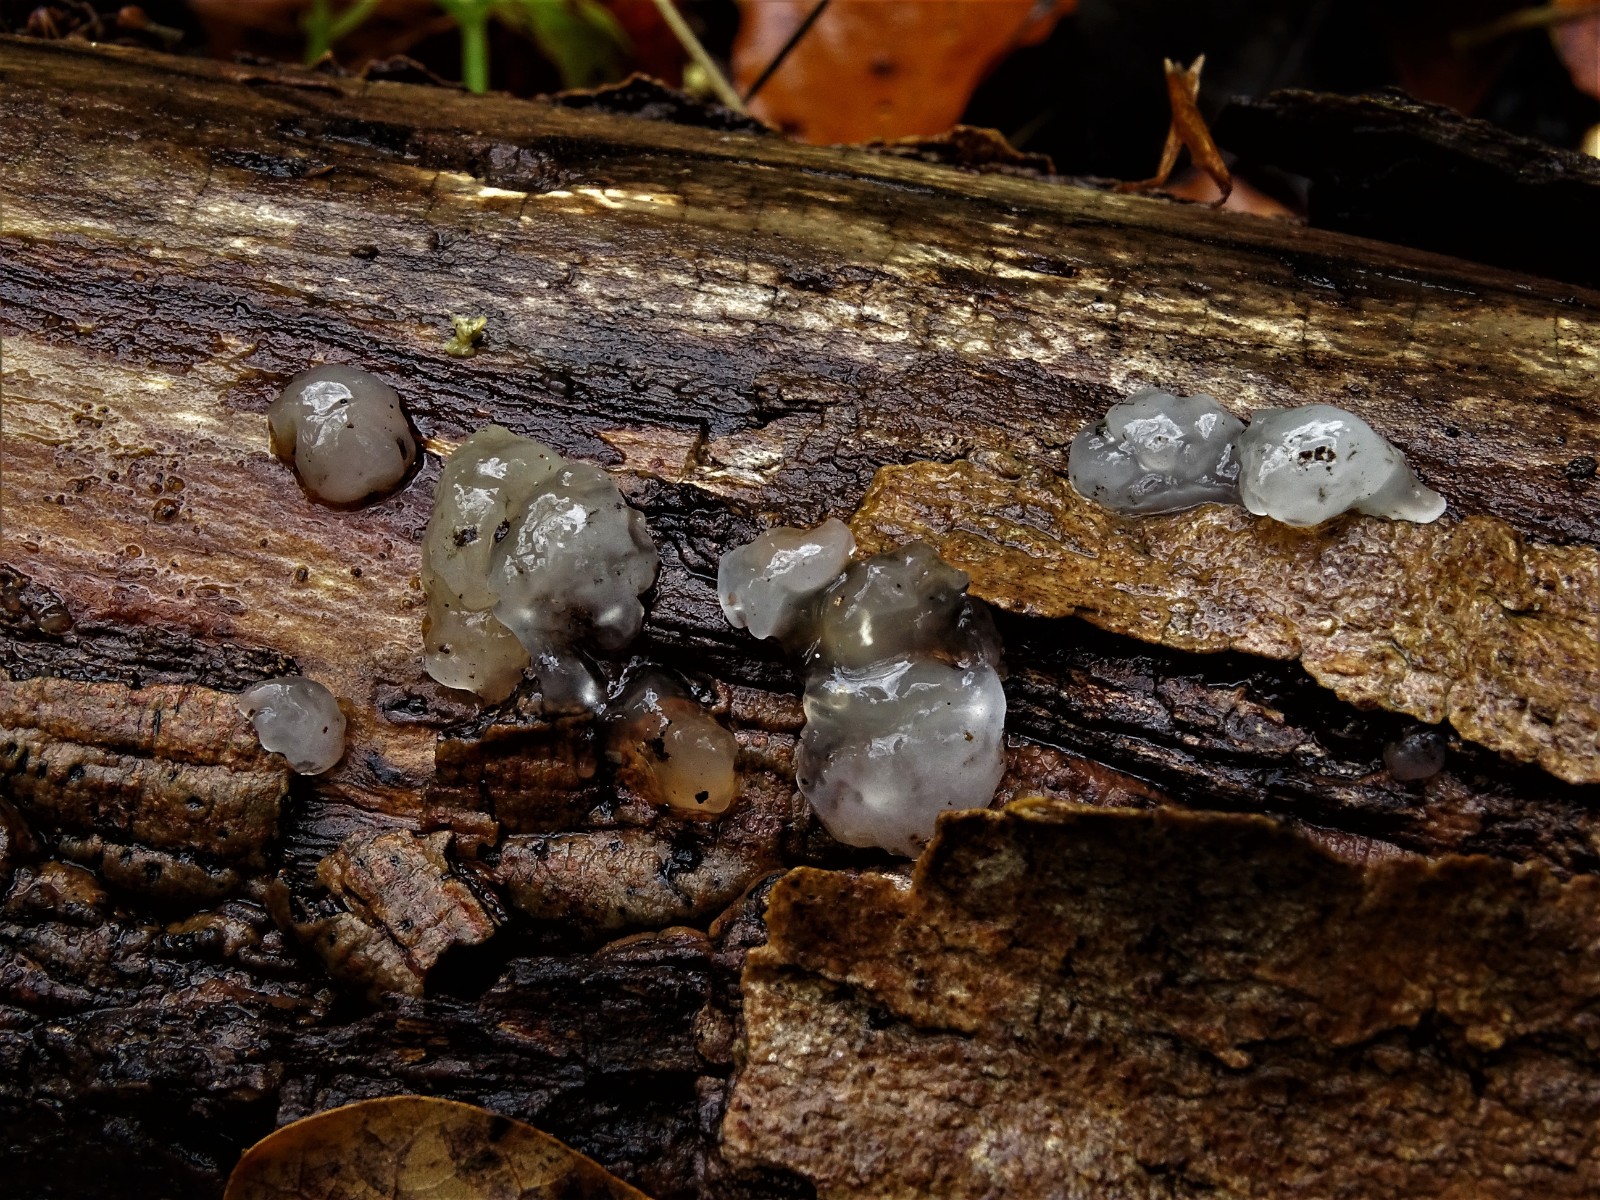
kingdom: Fungi
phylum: Basidiomycota
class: Agaricomycetes
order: Auriculariales
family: Hyaloriaceae
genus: Myxarium
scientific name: Myxarium nucleatum
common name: klar bævretop
